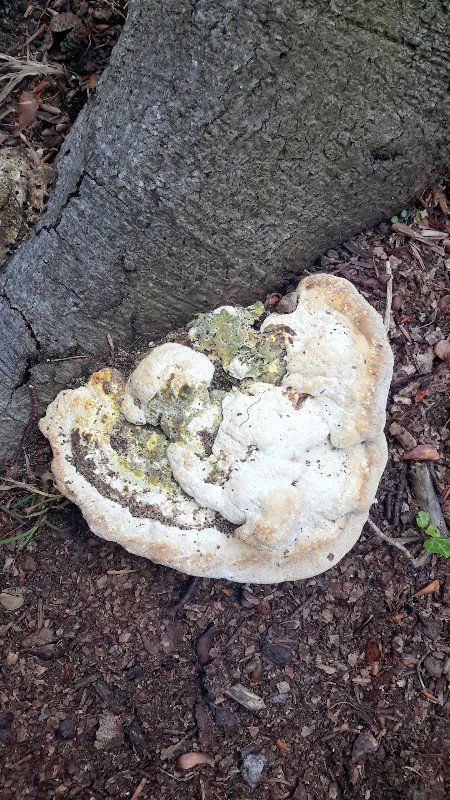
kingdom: Fungi
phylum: Basidiomycota
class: Agaricomycetes
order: Polyporales
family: Polyporaceae
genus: Trametes
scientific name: Trametes gibbosa
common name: puklet læderporesvamp
